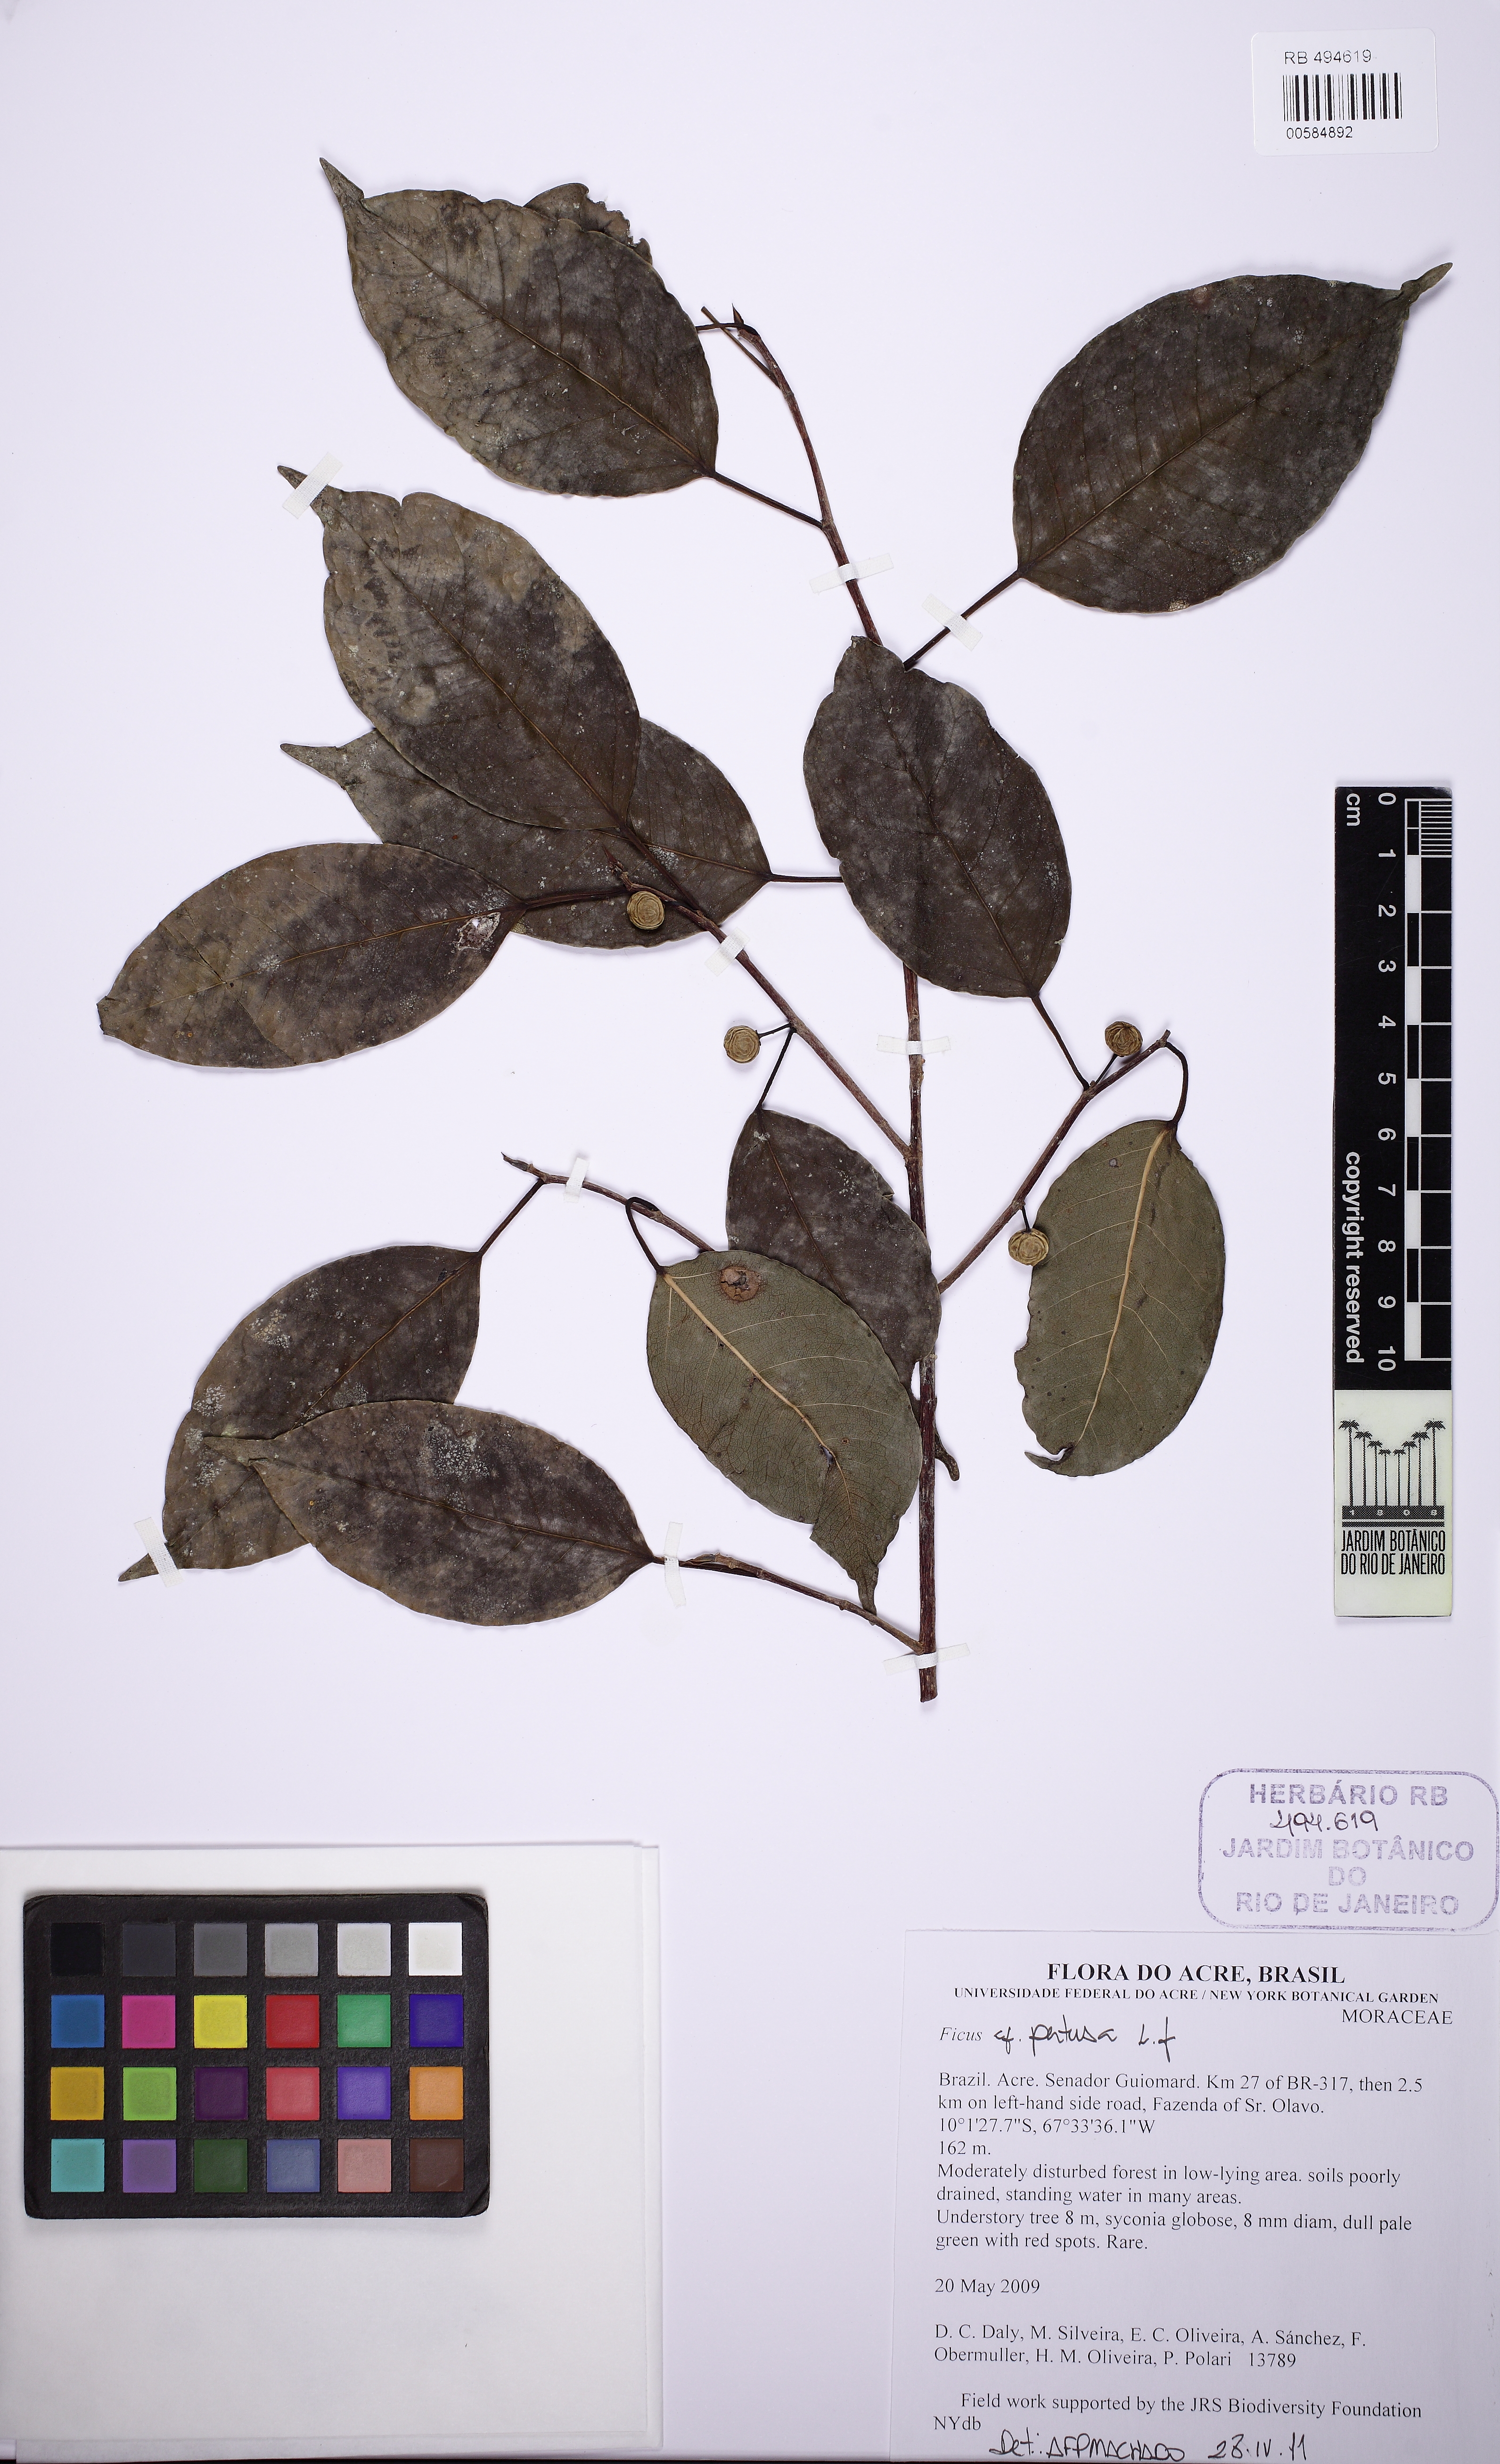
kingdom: Plantae
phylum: Tracheophyta
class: Magnoliopsida
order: Rosales
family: Moraceae
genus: Ficus
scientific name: Ficus pertusa
